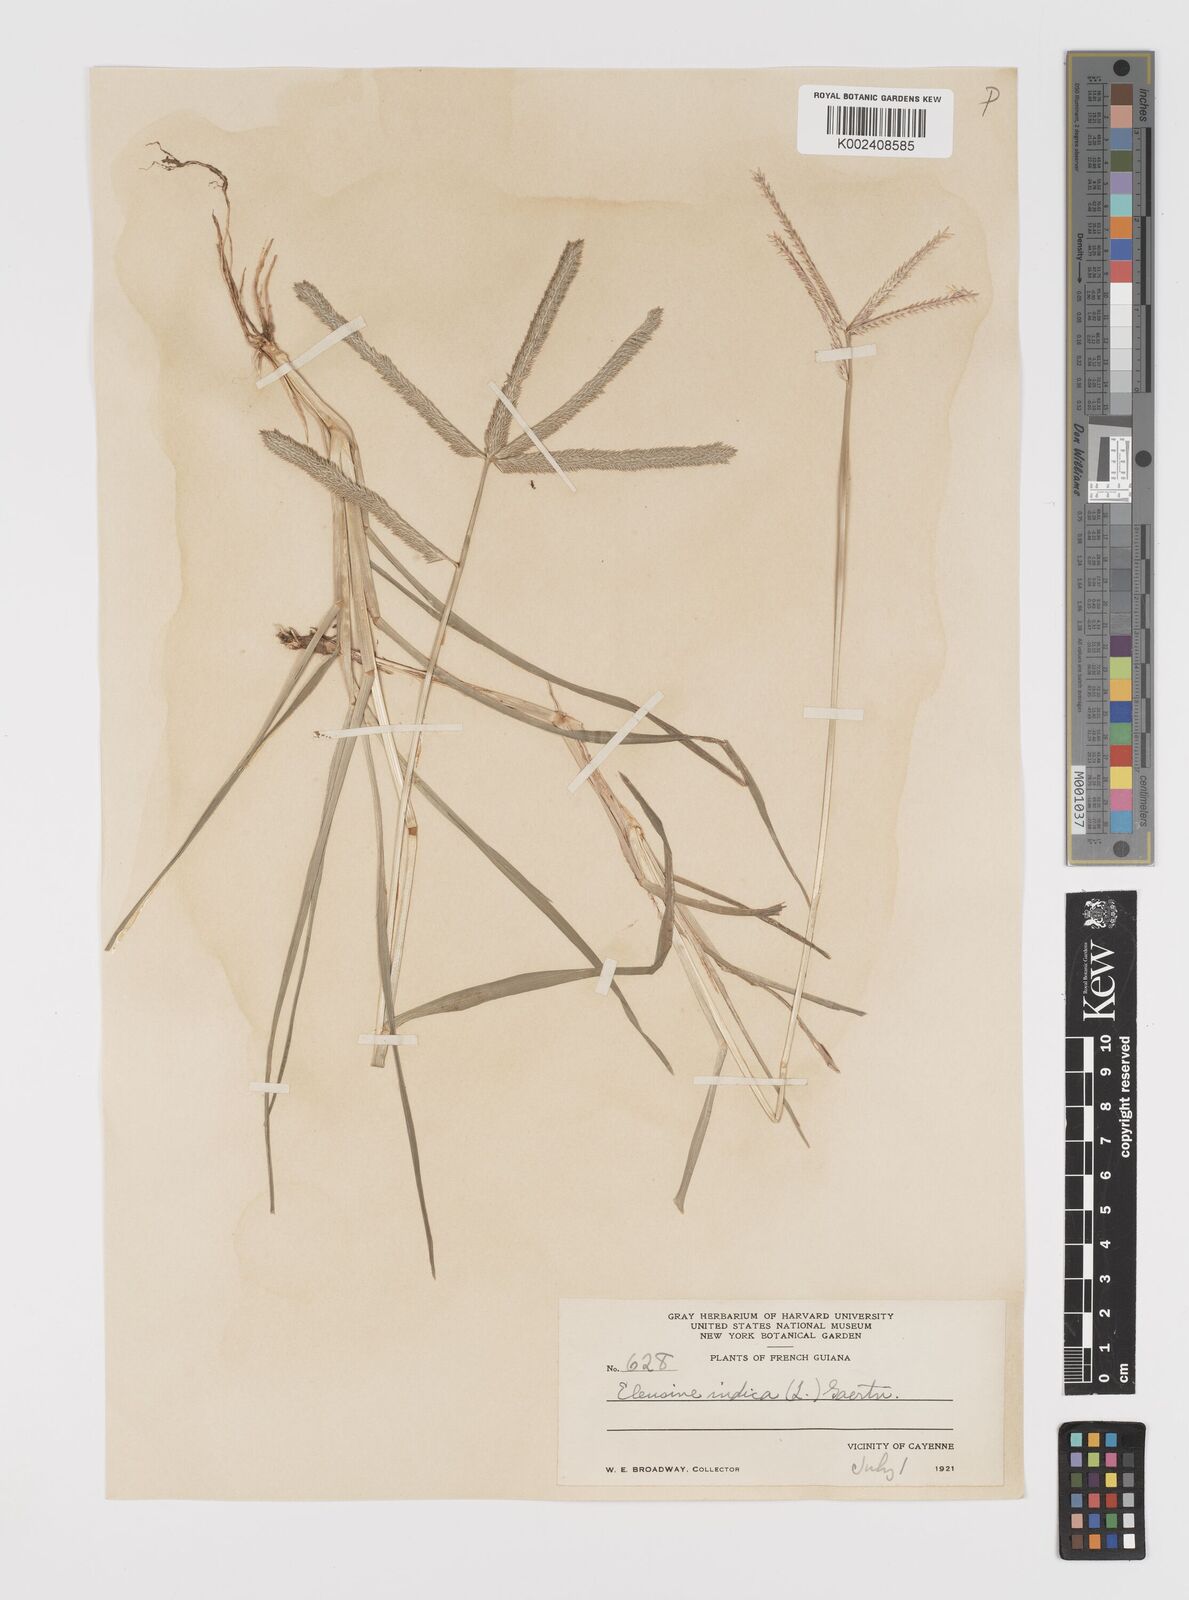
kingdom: Plantae
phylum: Tracheophyta
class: Liliopsida
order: Poales
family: Poaceae
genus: Eleusine
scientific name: Eleusine
